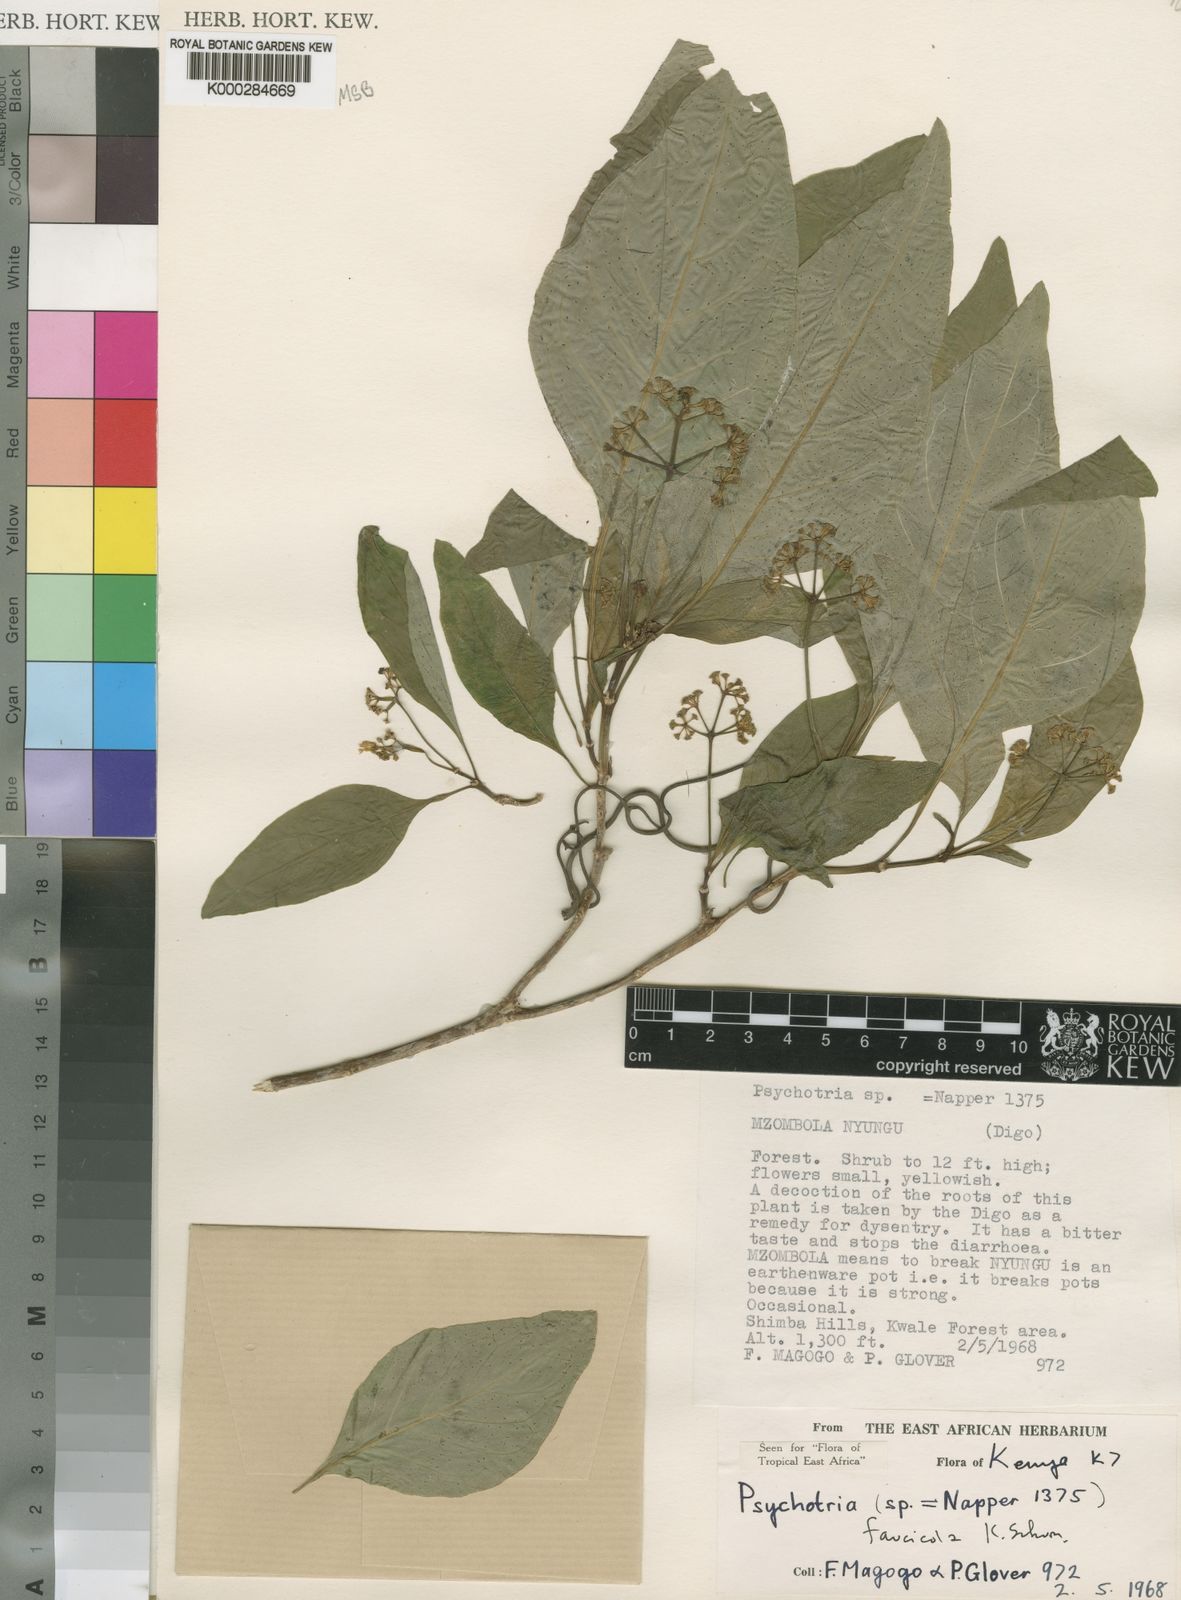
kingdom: Plantae
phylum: Tracheophyta
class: Magnoliopsida
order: Gentianales
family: Rubiaceae
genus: Psychotria
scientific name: Psychotria faucicola
